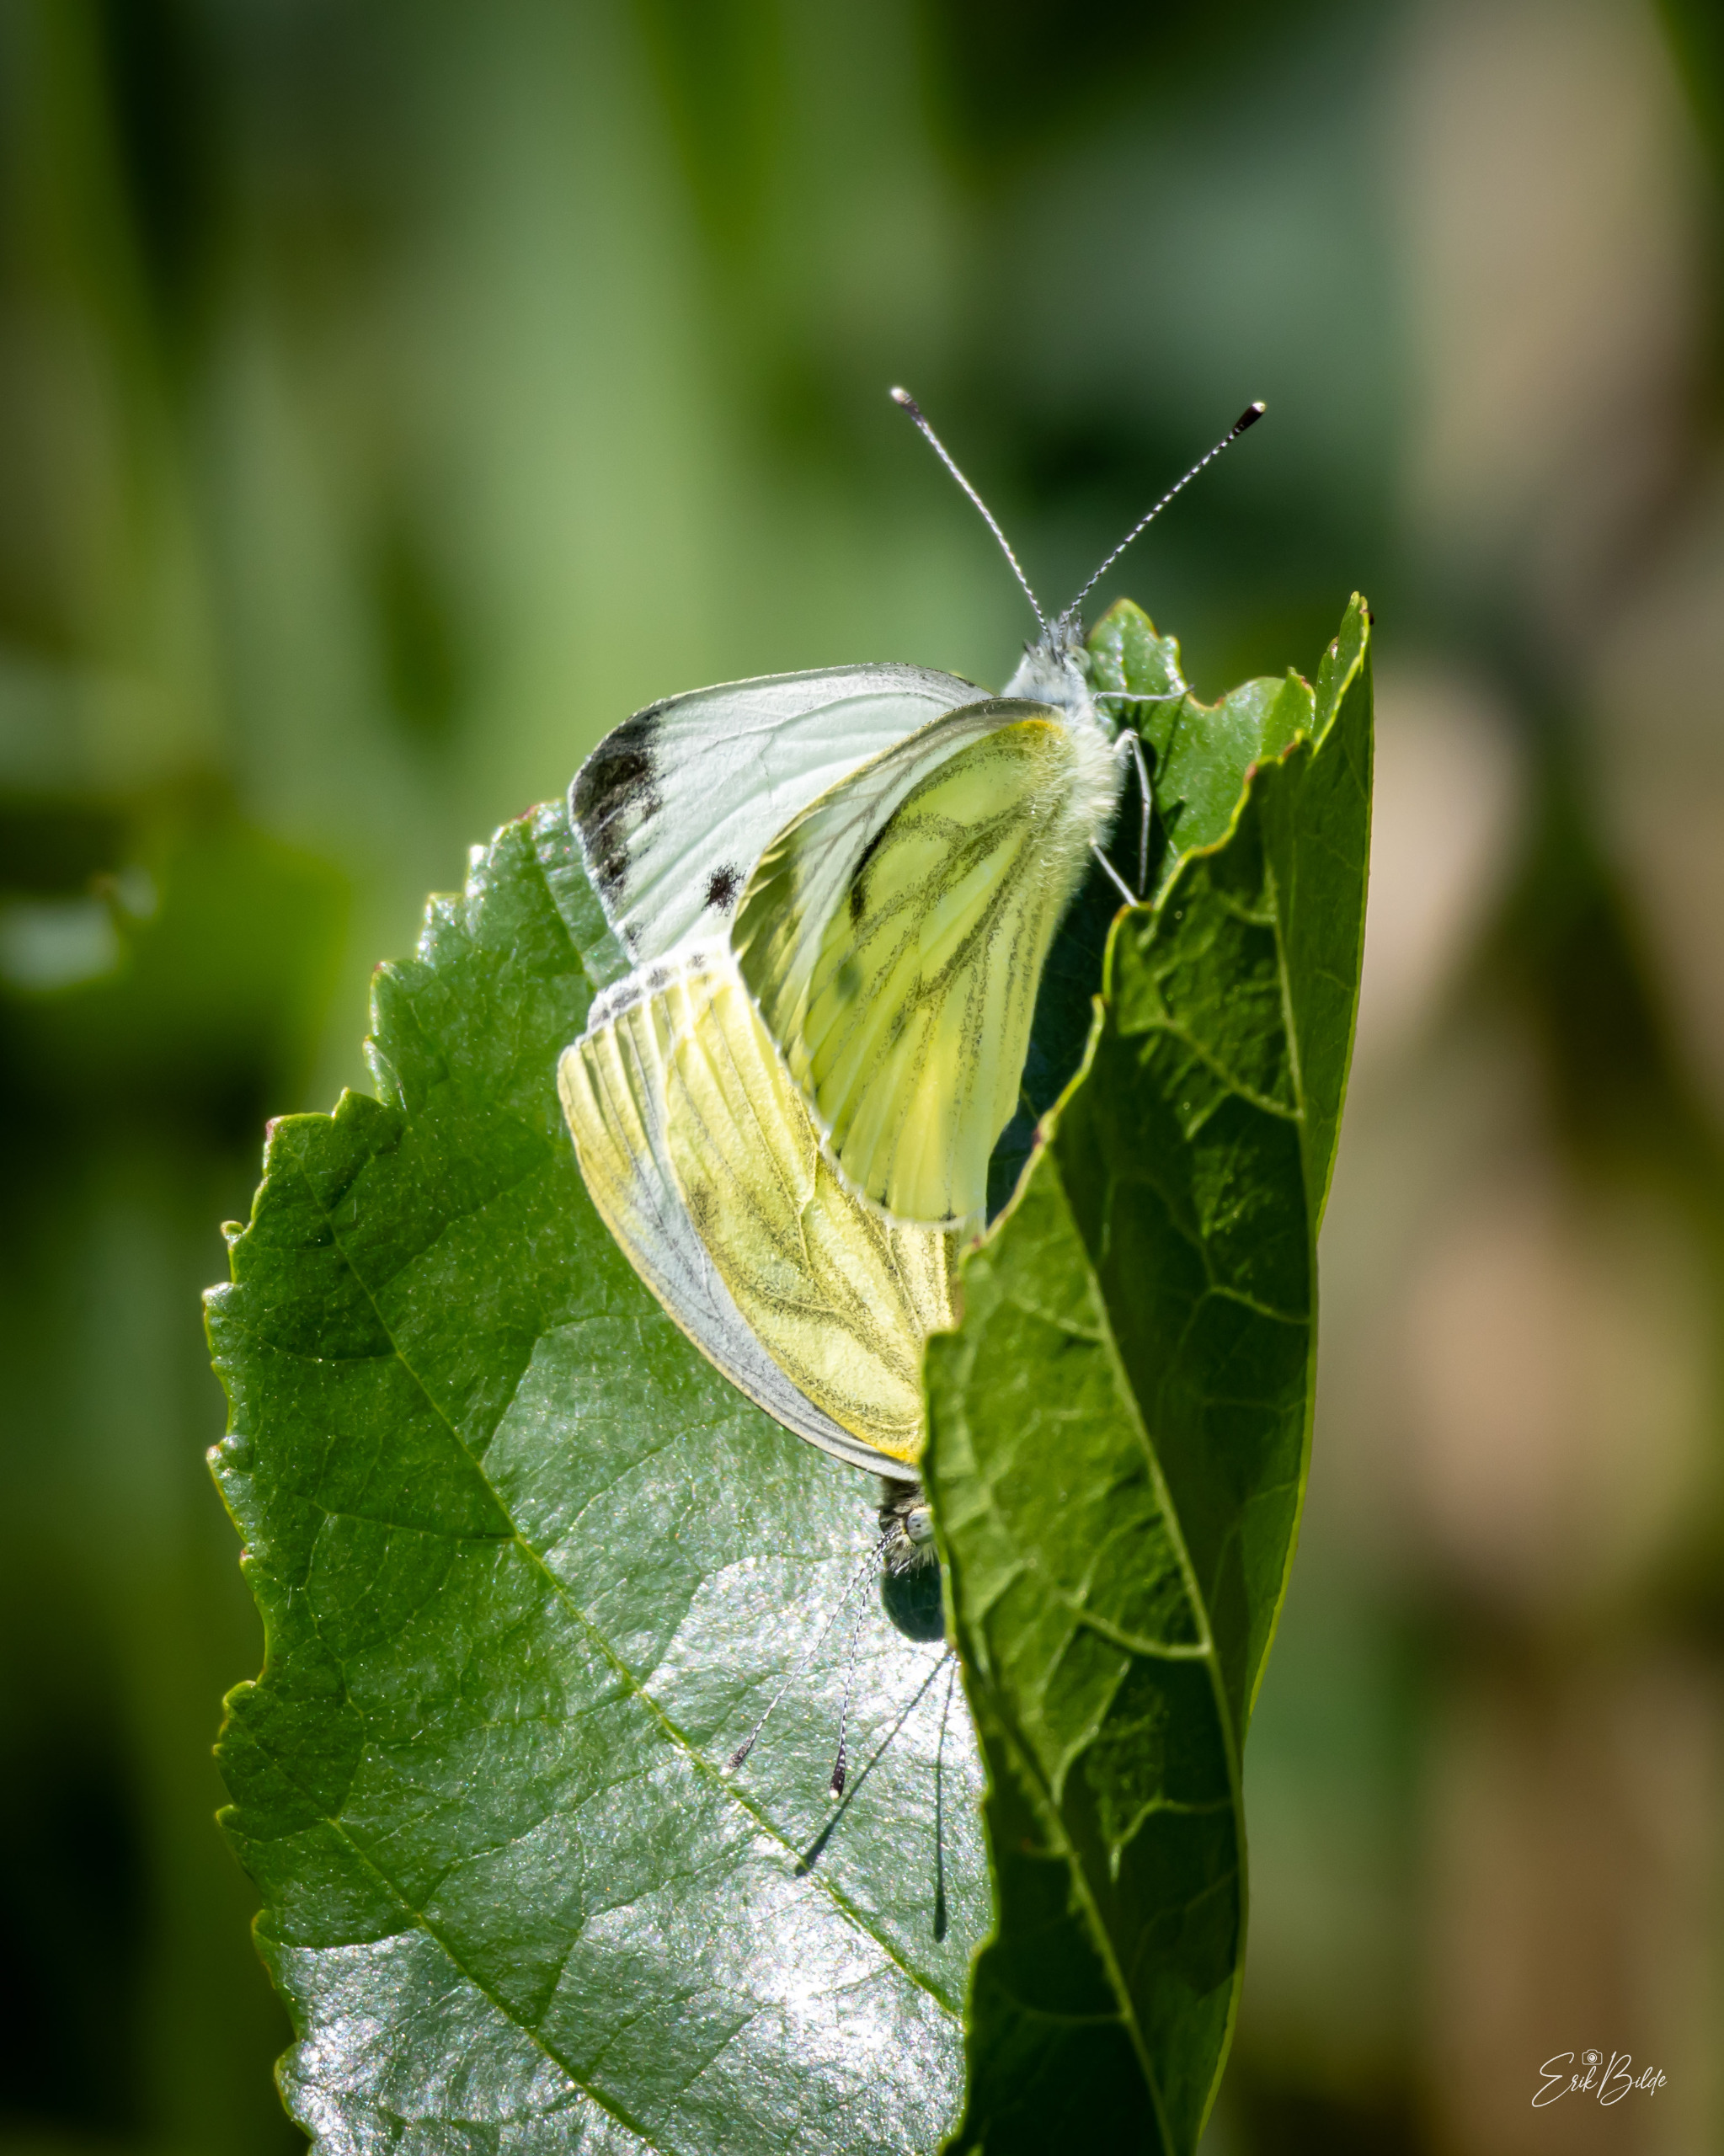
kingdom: Animalia
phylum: Arthropoda
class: Insecta
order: Lepidoptera
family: Pieridae
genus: Pieris
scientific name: Pieris napi
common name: Grønåret kålsommerfugl
